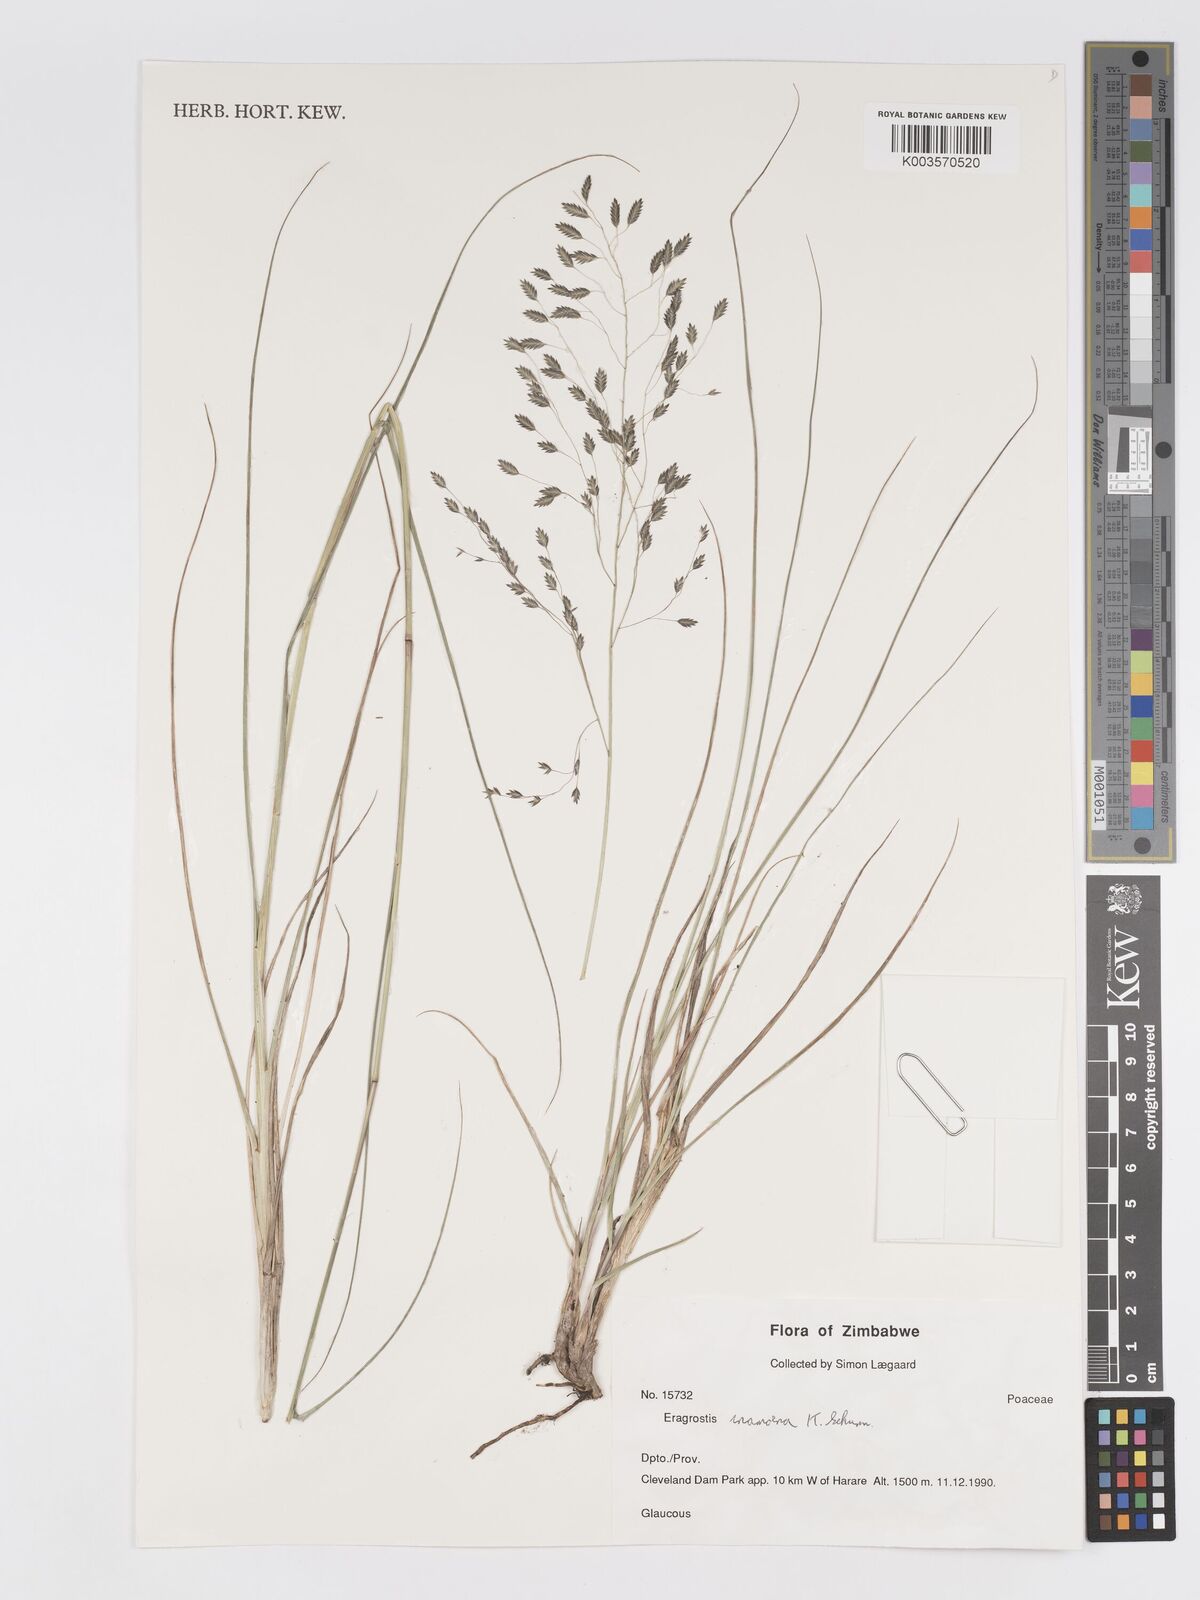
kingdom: Plantae
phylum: Tracheophyta
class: Liliopsida
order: Poales
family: Poaceae
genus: Eragrostis
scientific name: Eragrostis inamoena
